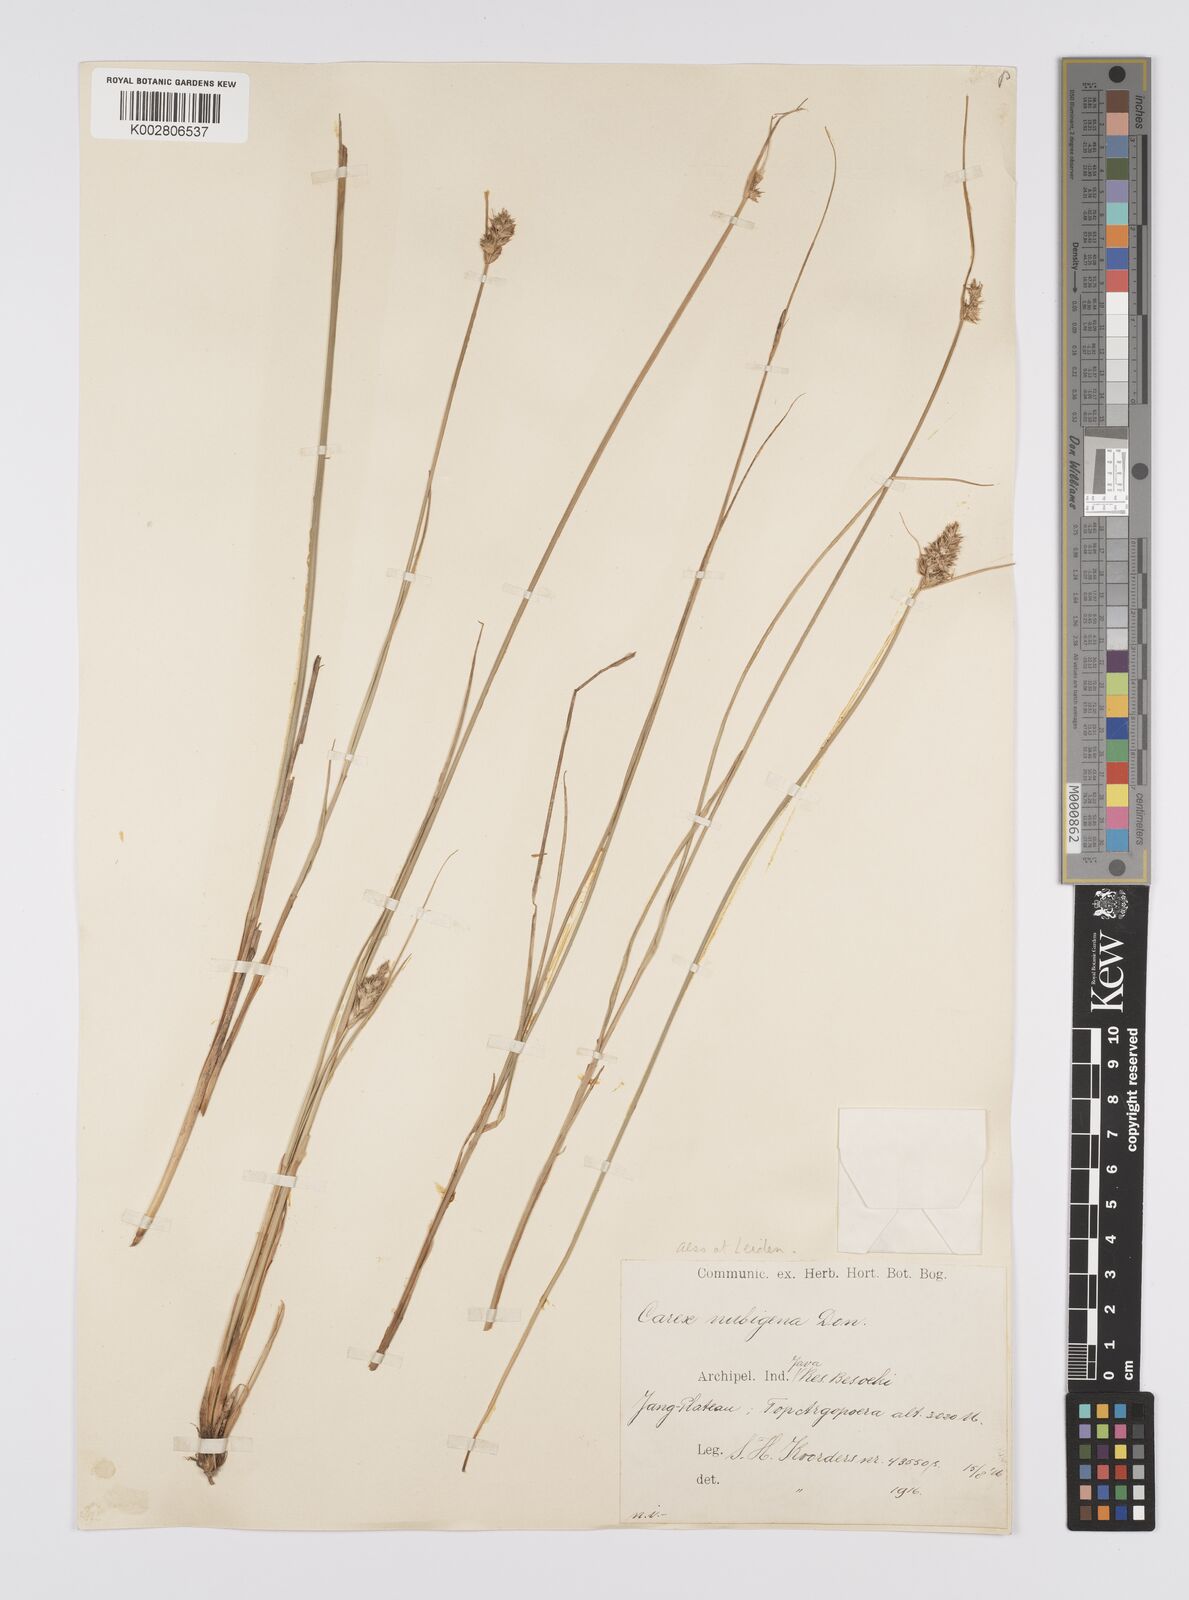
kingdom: Plantae
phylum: Tracheophyta
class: Liliopsida
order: Poales
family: Cyperaceae
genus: Carex
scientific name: Carex
